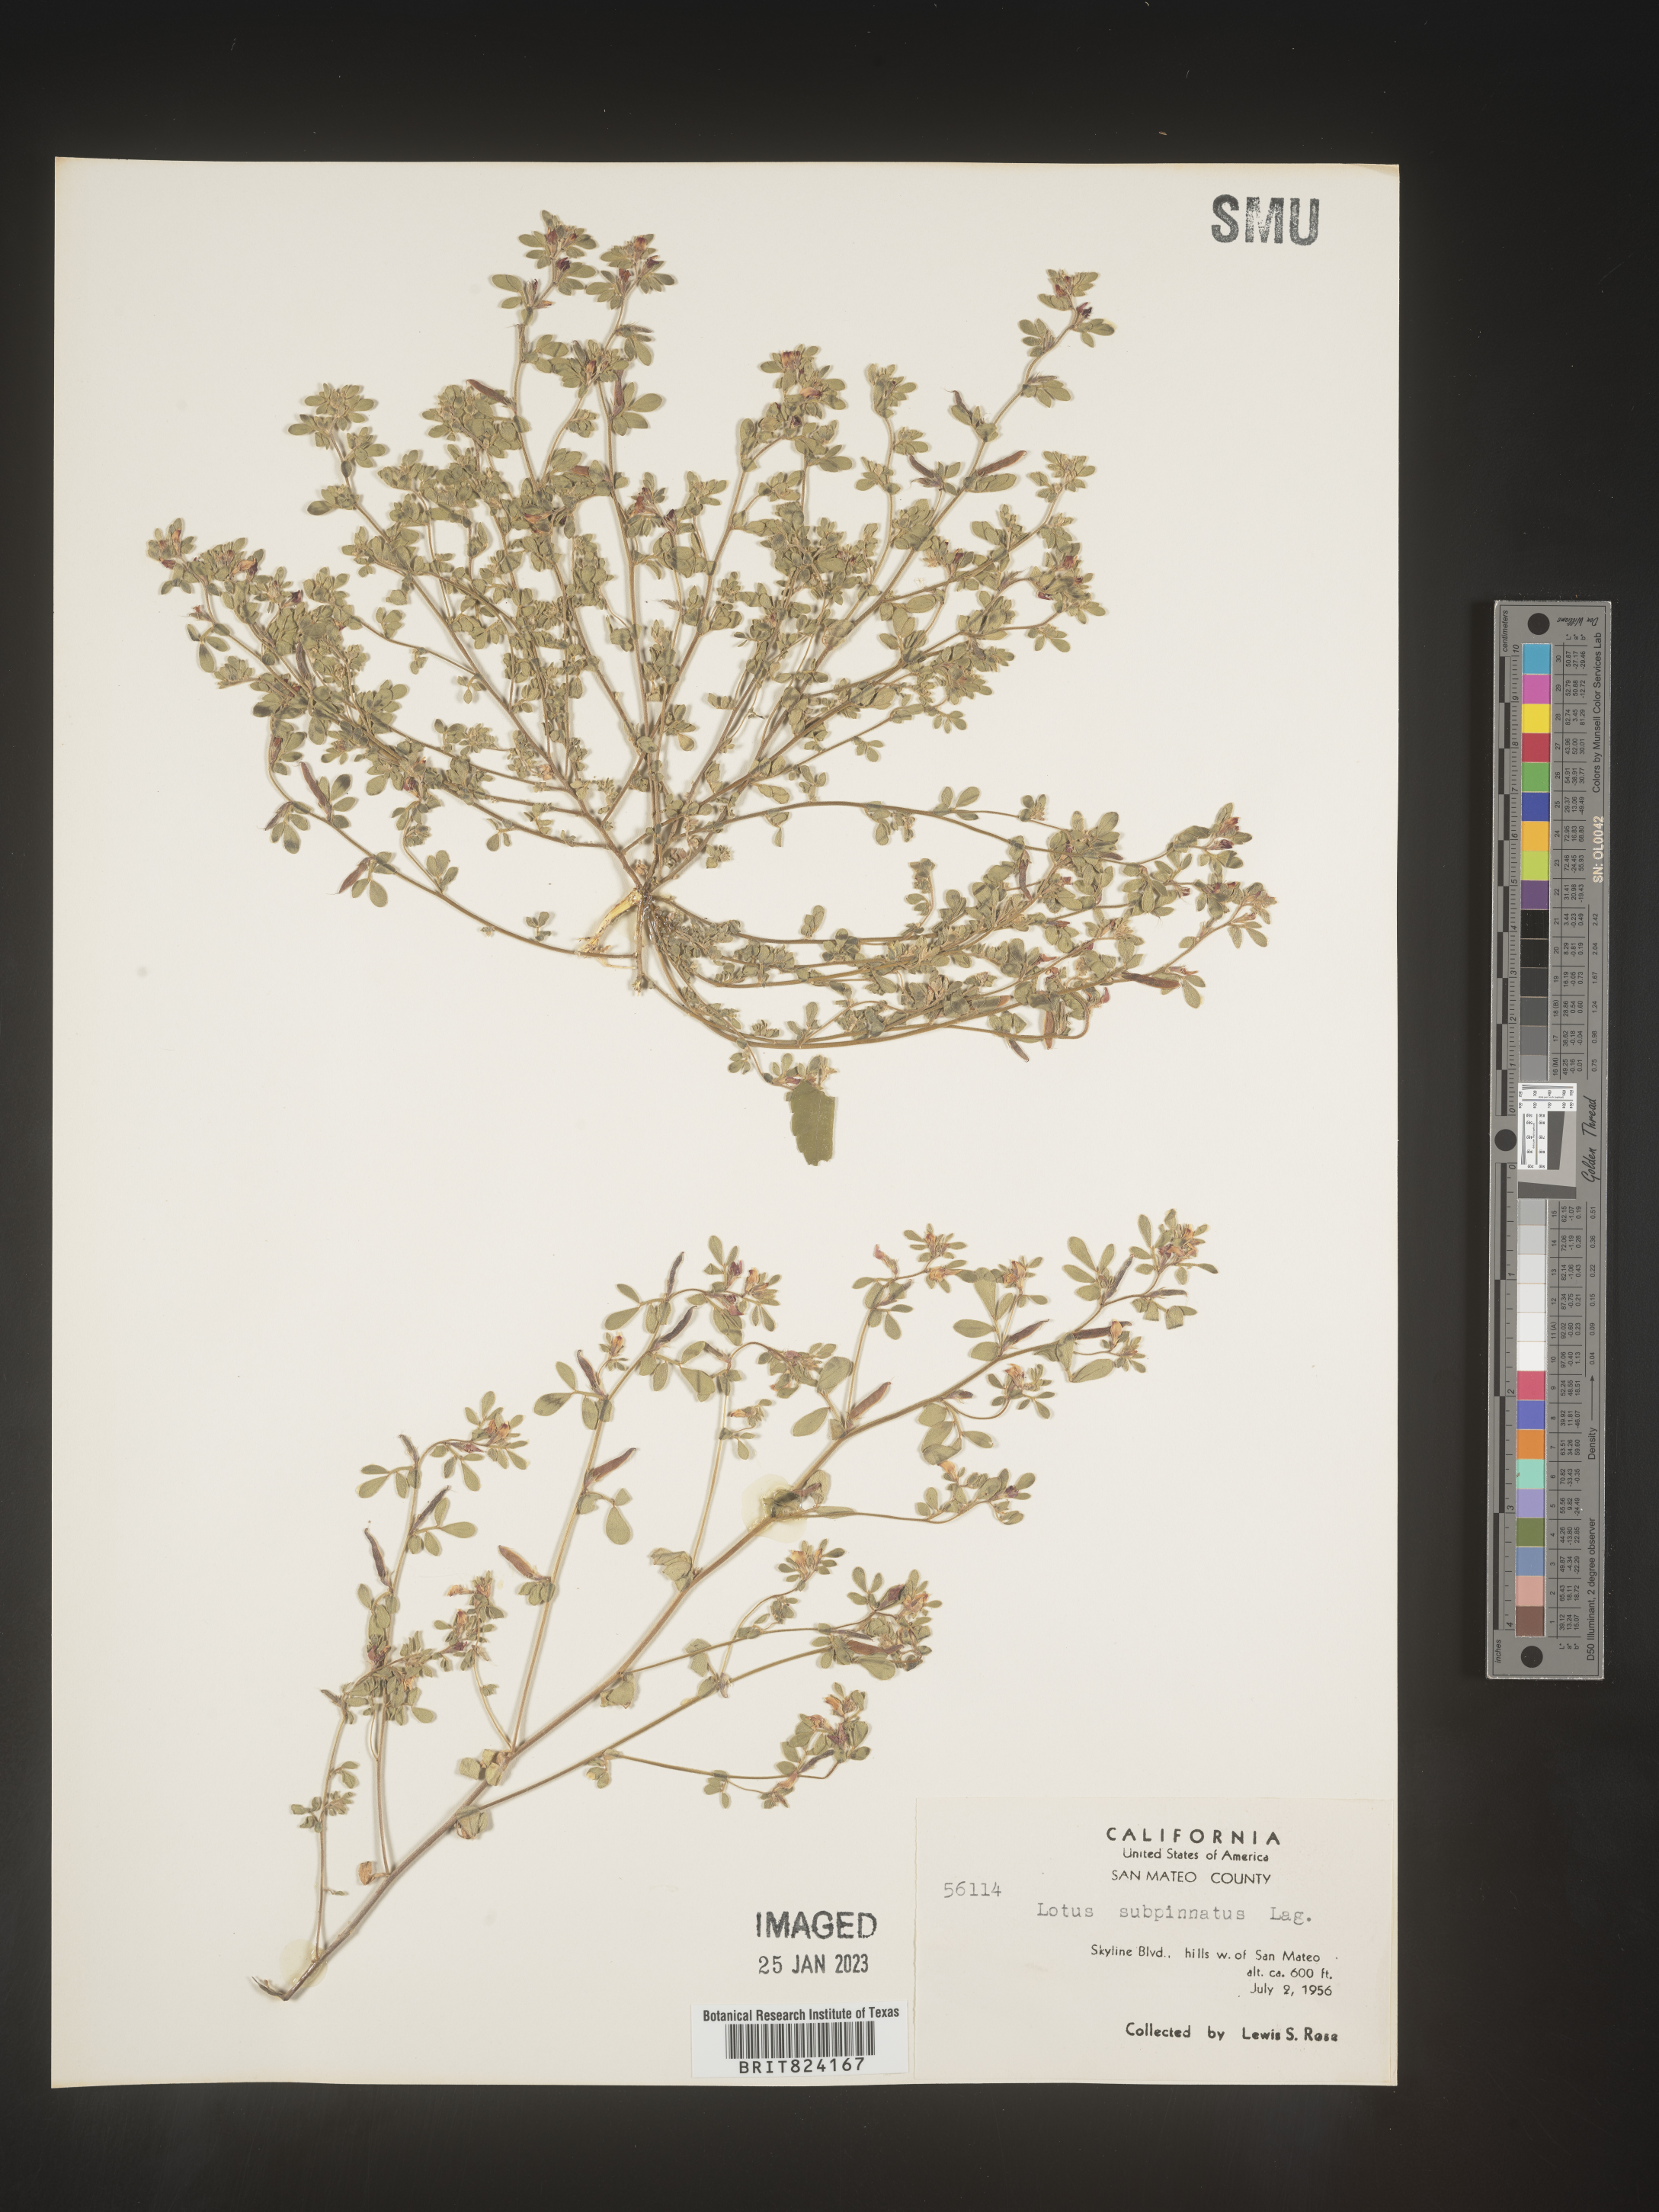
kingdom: Plantae
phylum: Tracheophyta
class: Magnoliopsida
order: Fabales
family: Fabaceae
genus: Lotus
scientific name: Lotus
